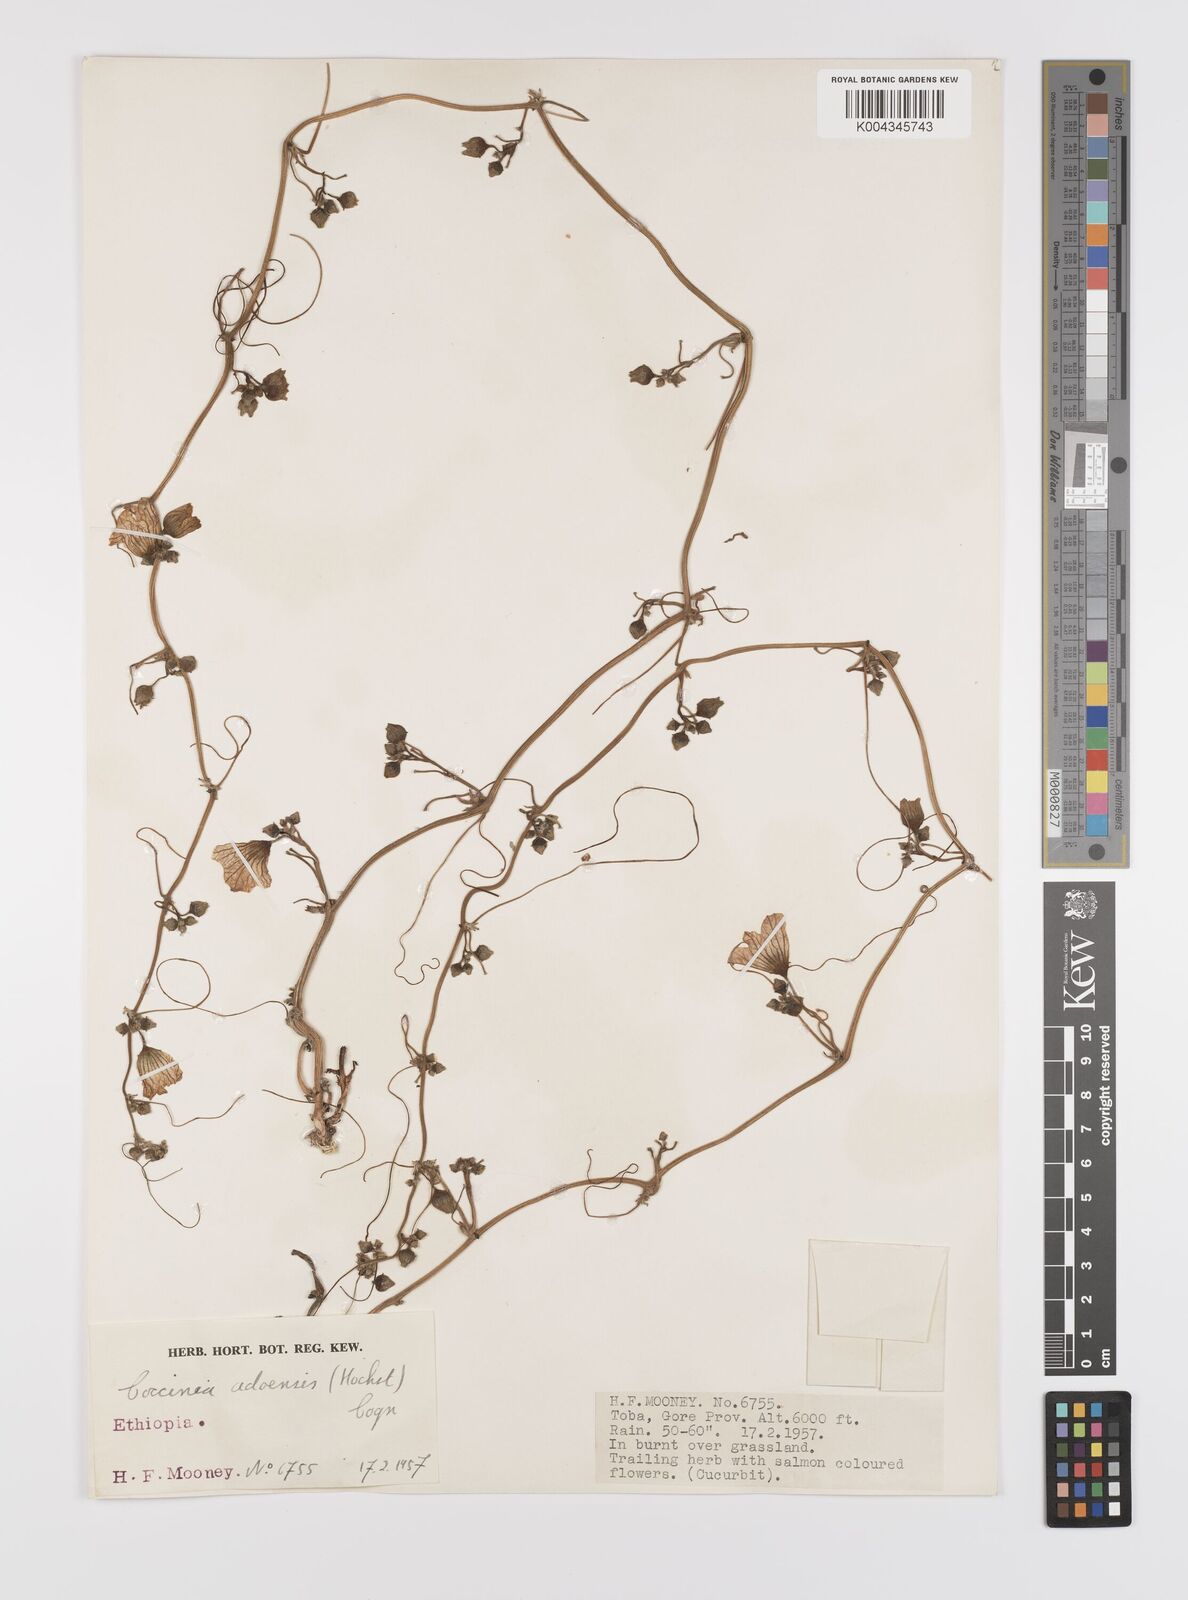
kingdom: Plantae
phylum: Tracheophyta
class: Magnoliopsida
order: Cucurbitales
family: Cucurbitaceae
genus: Coccinia
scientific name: Coccinia adoensis
